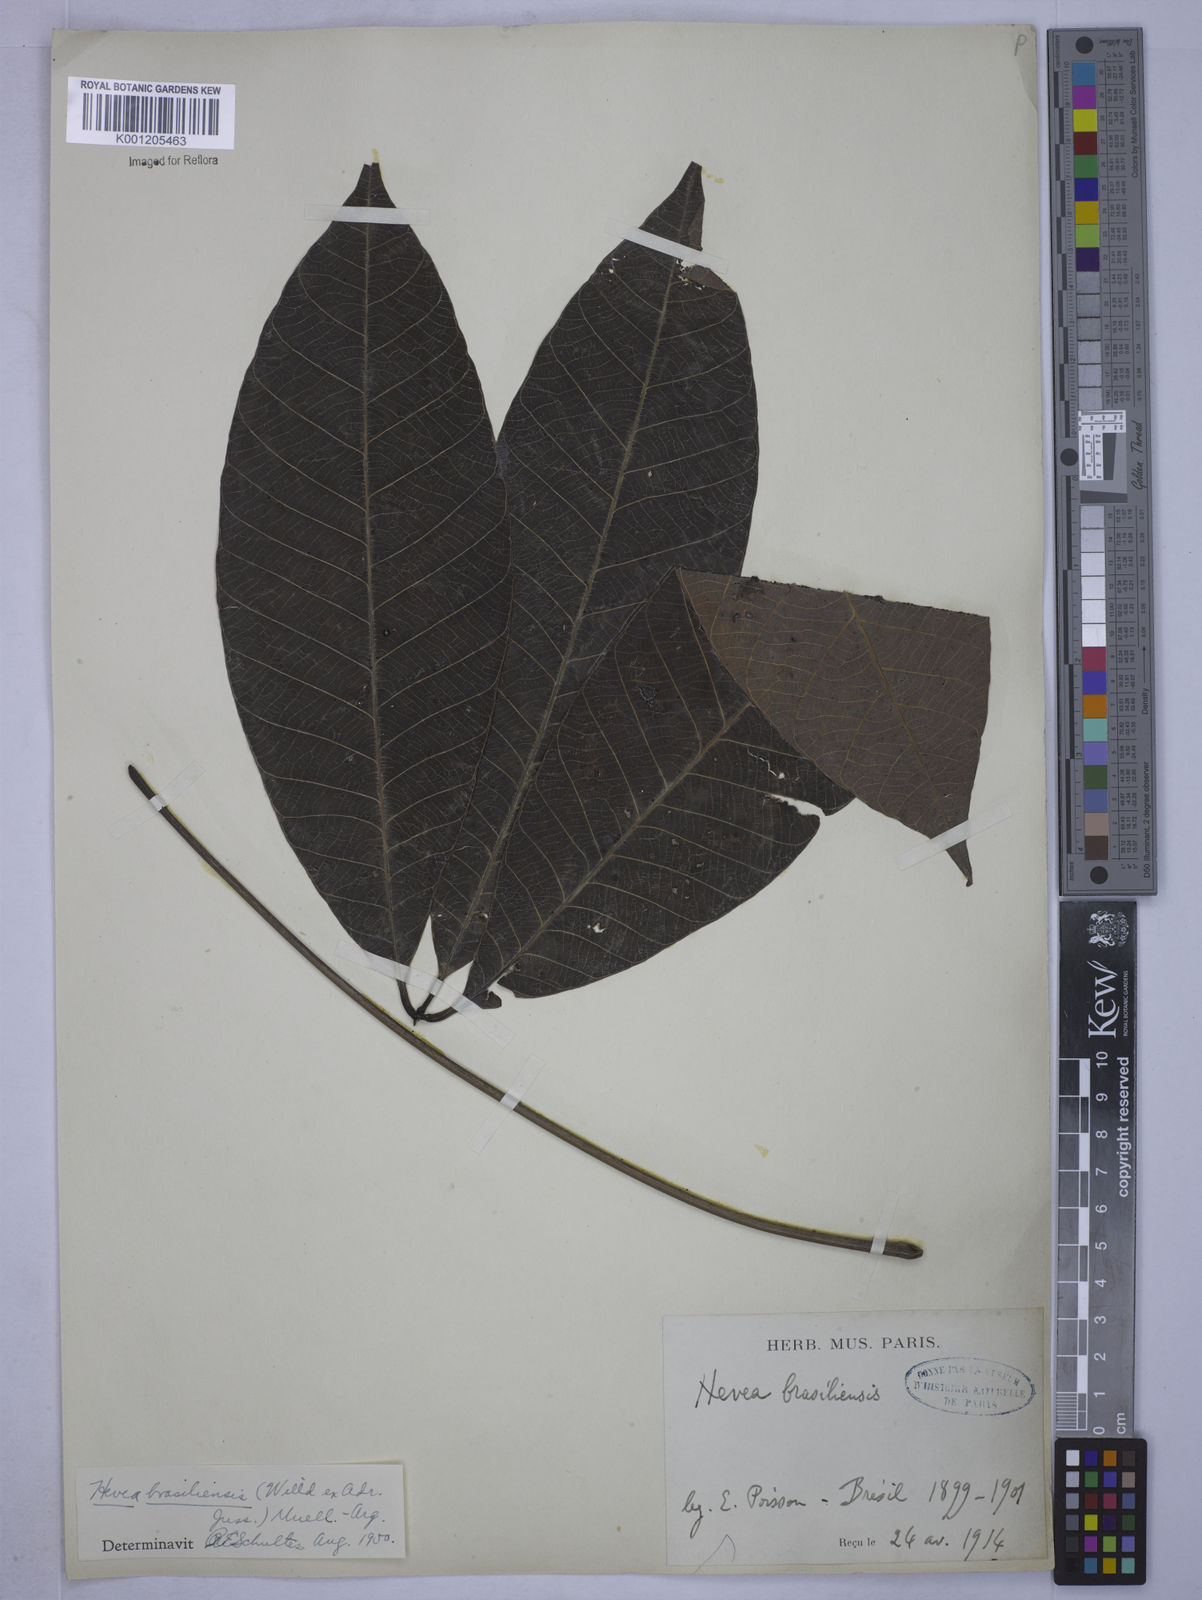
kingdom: Plantae
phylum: Tracheophyta
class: Magnoliopsida
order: Malpighiales
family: Euphorbiaceae
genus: Hevea
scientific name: Hevea
